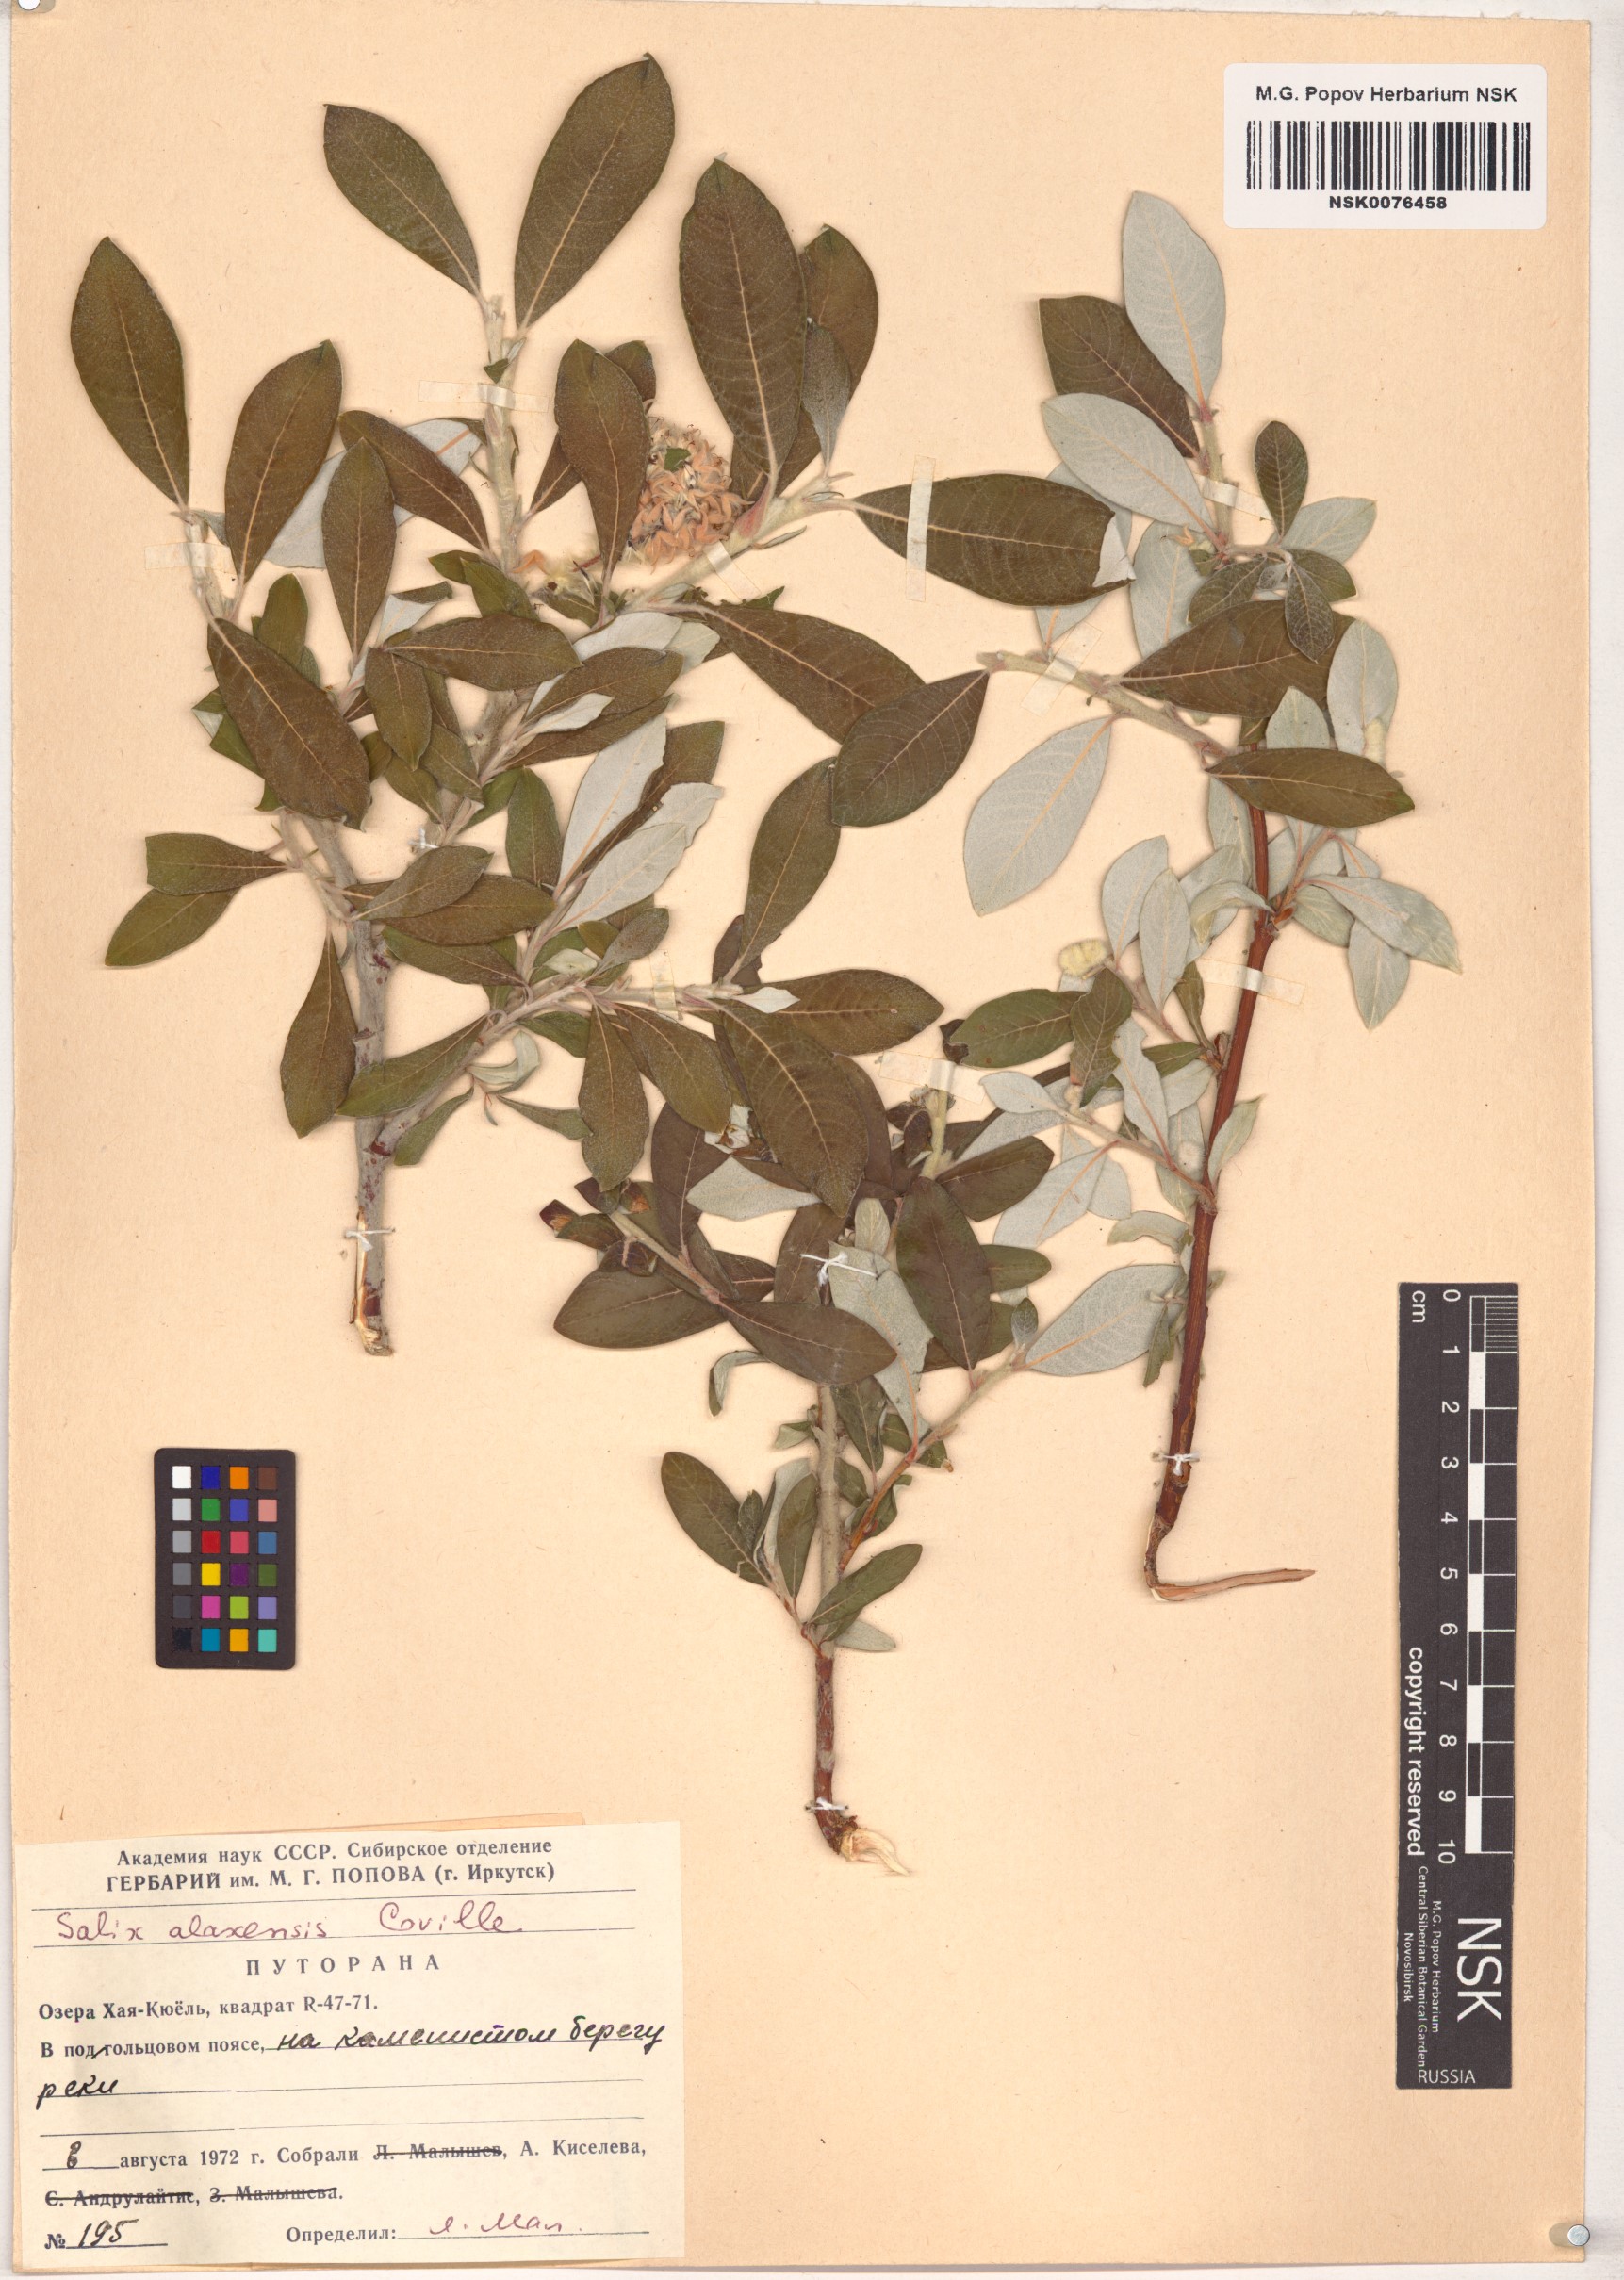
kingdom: Plantae
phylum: Tracheophyta
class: Magnoliopsida
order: Malpighiales
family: Salicaceae
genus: Salix
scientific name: Salix alaxensis
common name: Feltleaf willow
